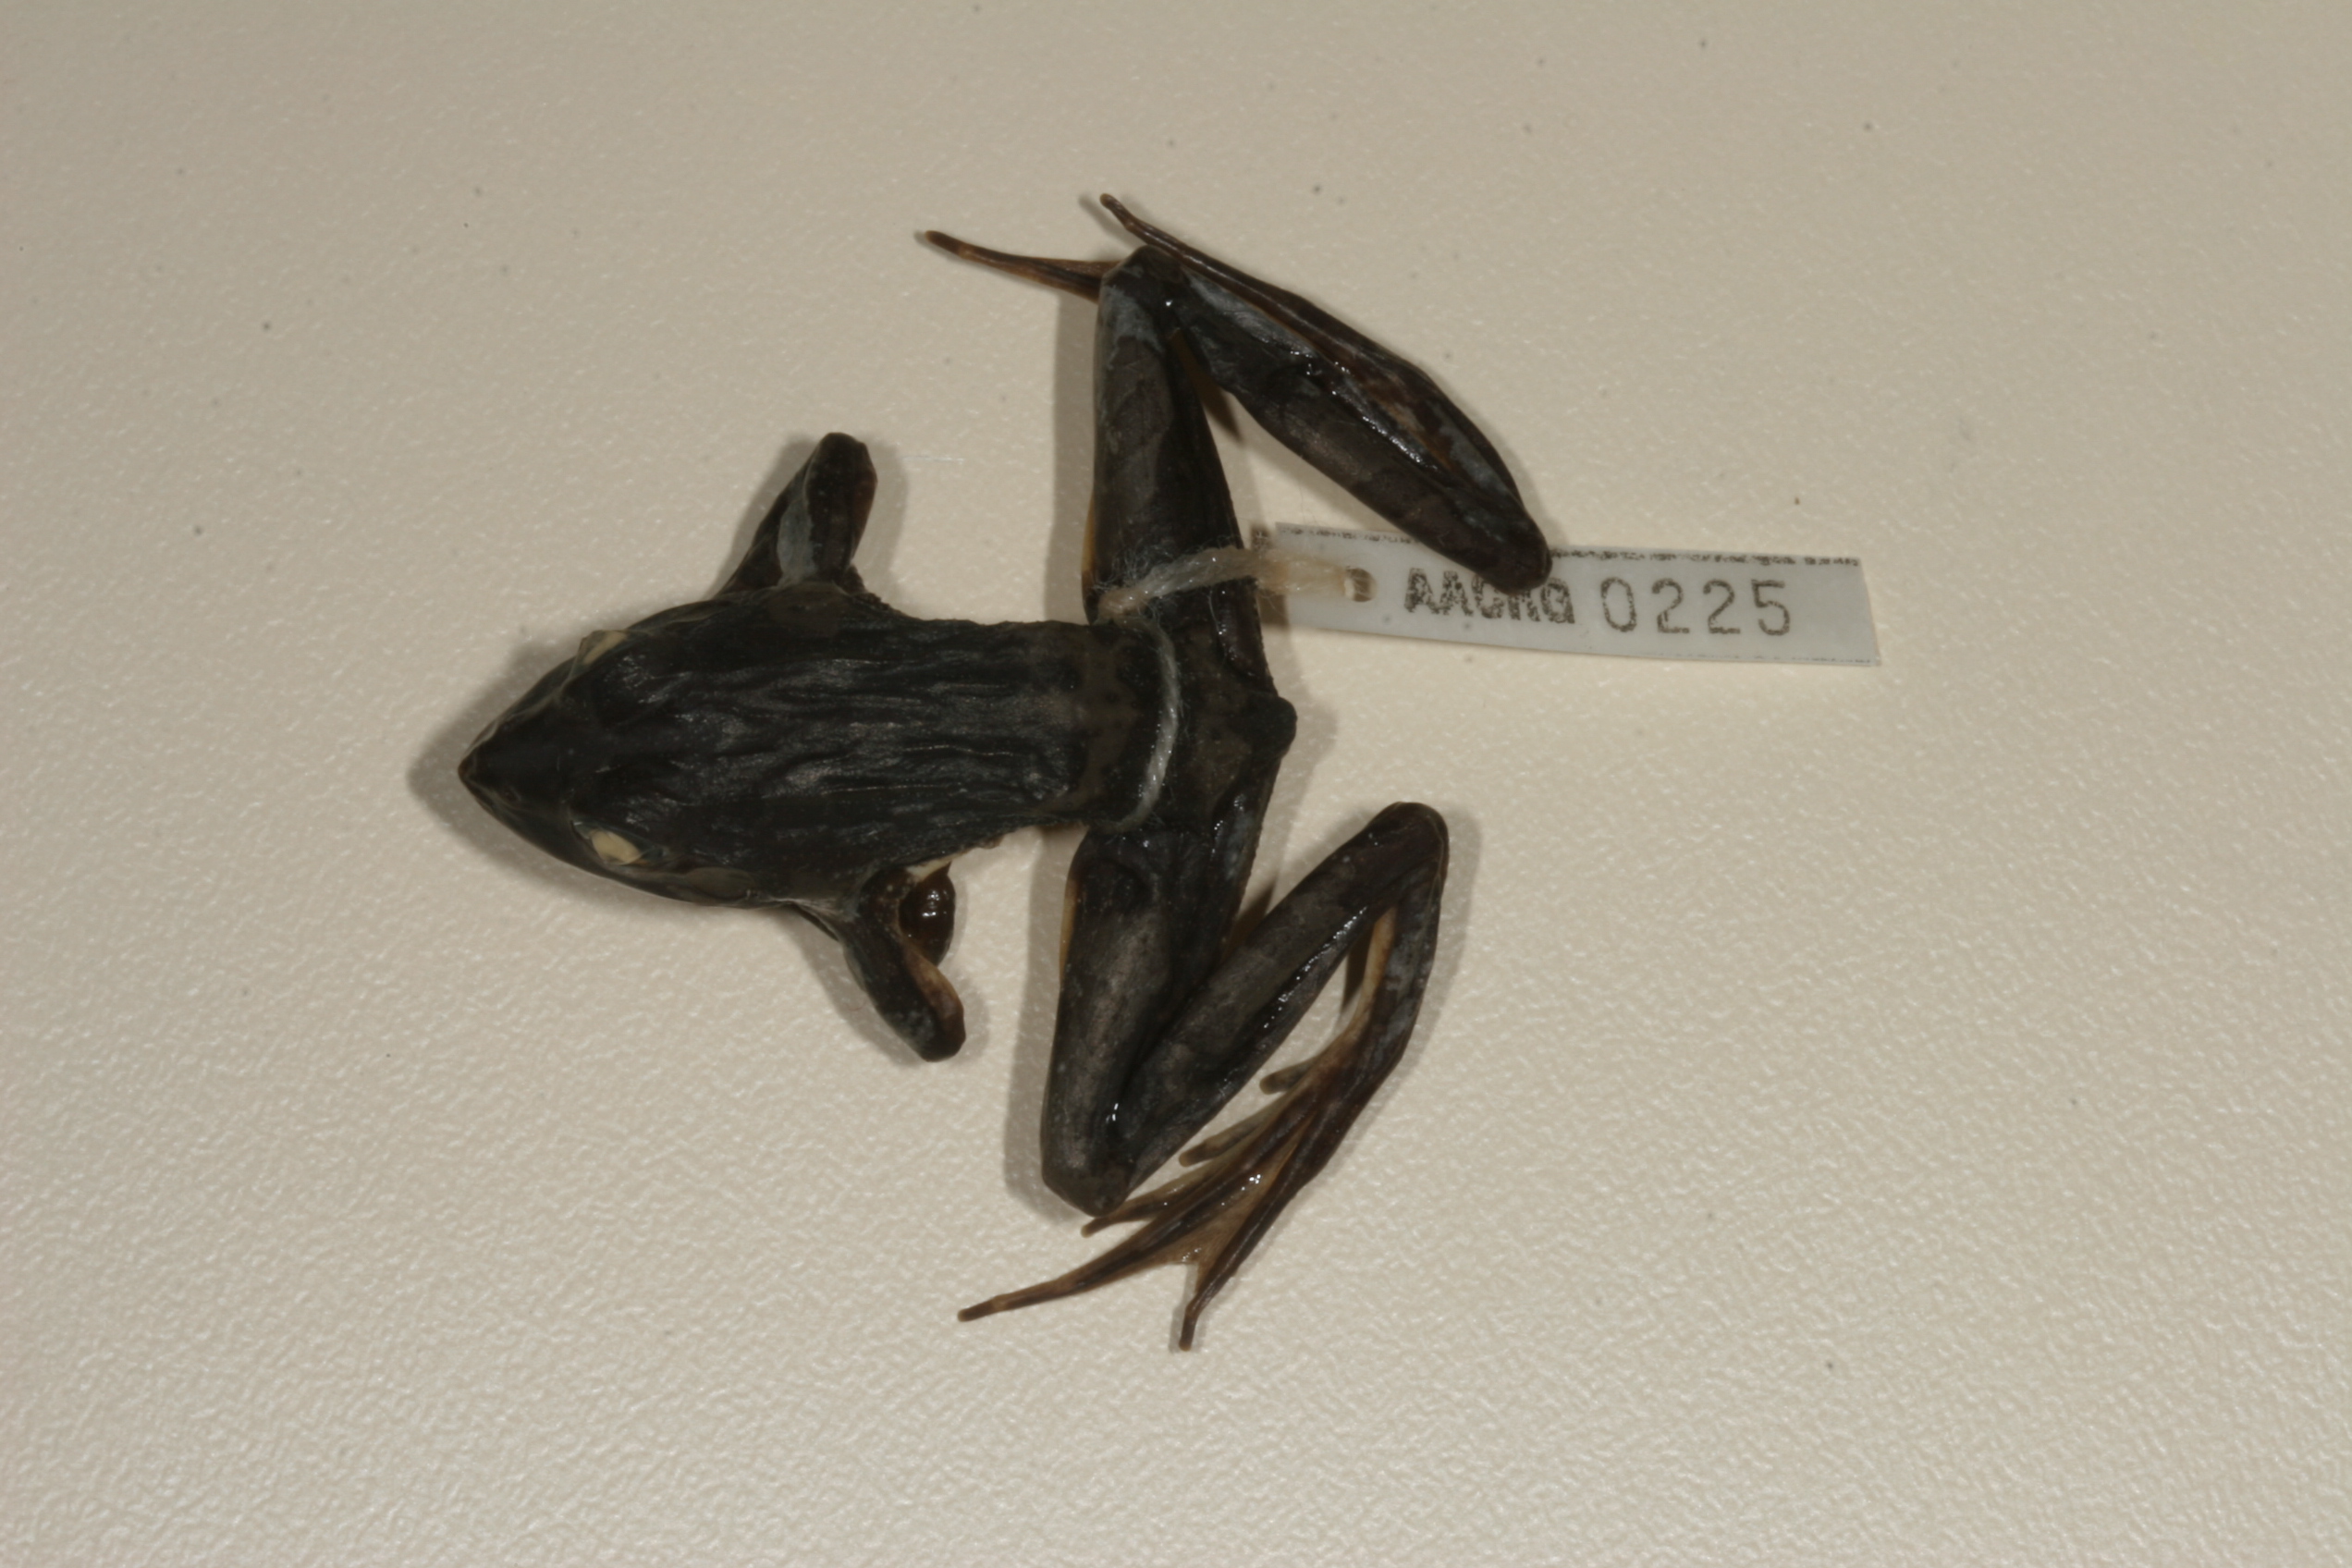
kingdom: Animalia
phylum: Chordata
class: Amphibia
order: Anura
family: Pyxicephalidae
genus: Amietia
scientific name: Amietia angolensis
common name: Dusky-throated frog
